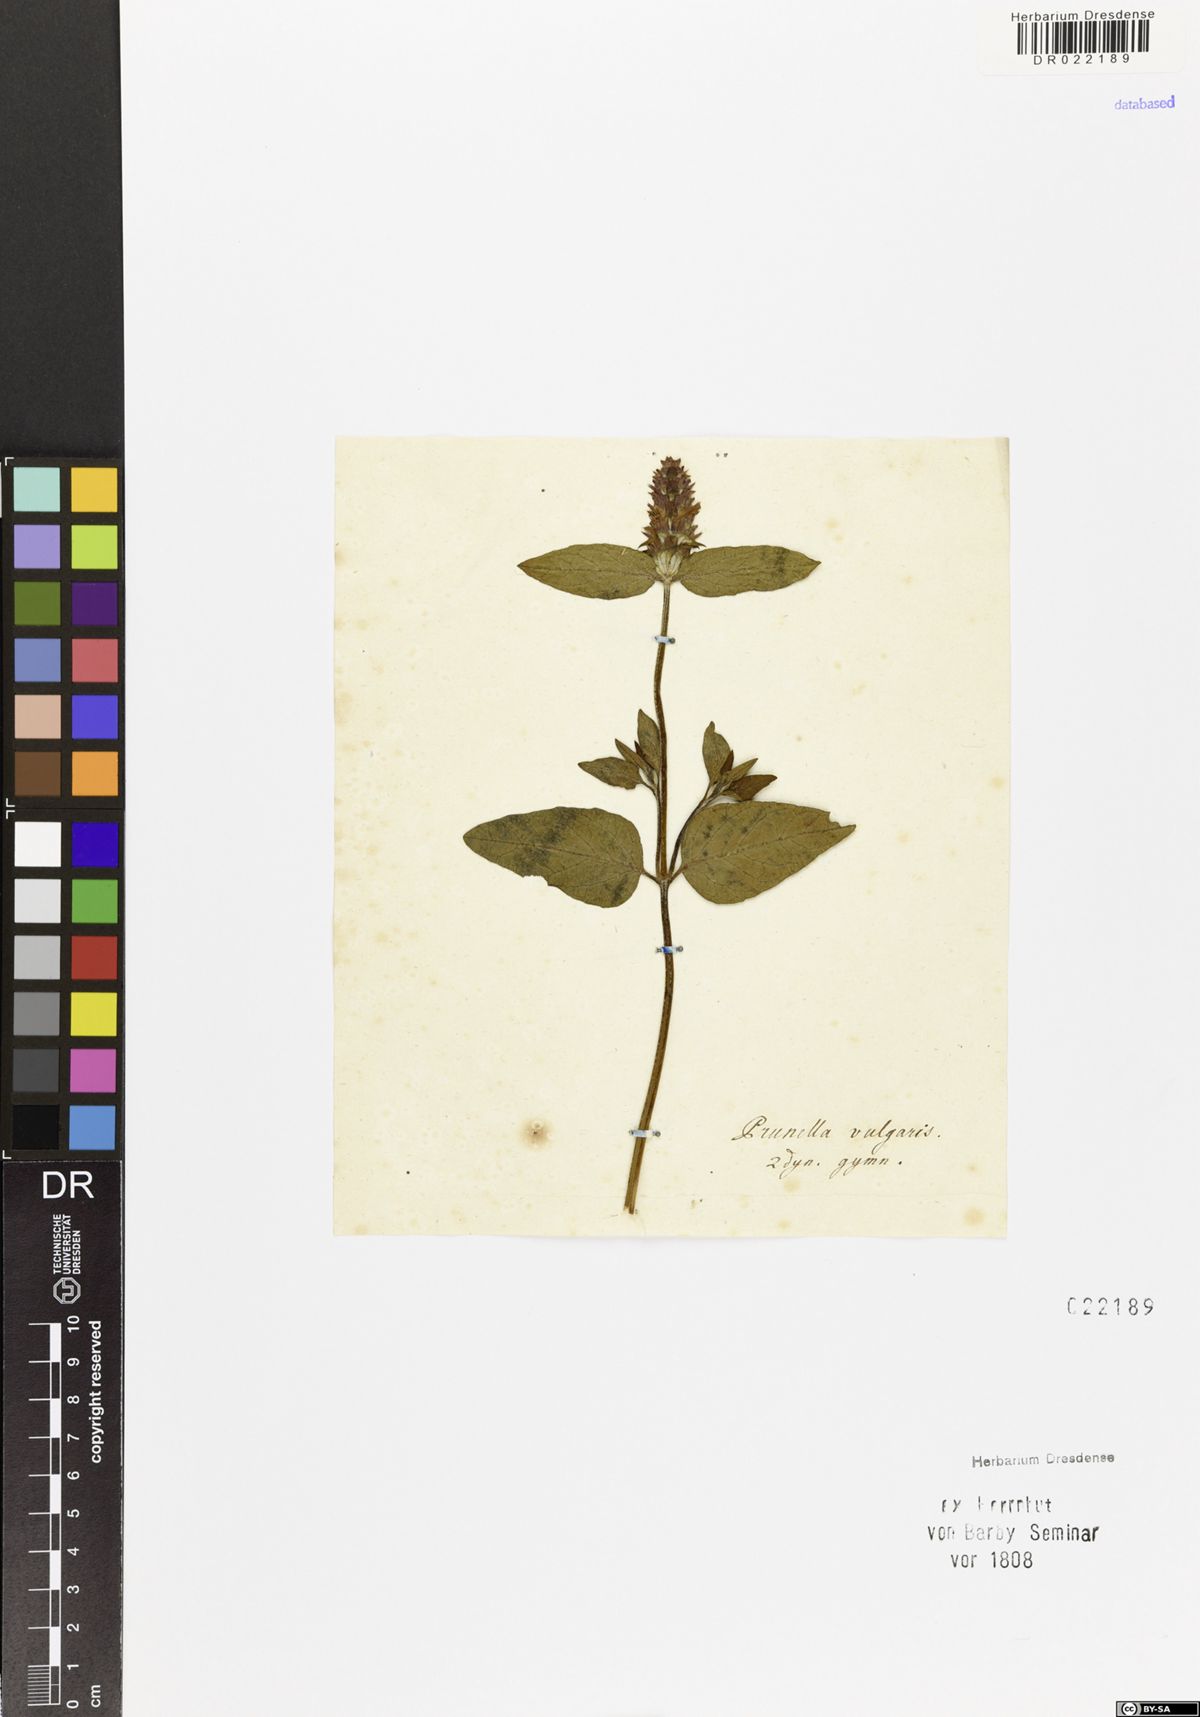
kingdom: Plantae
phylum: Tracheophyta
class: Magnoliopsida
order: Lamiales
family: Lamiaceae
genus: Prunella
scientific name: Prunella vulgaris
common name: Heal-all
